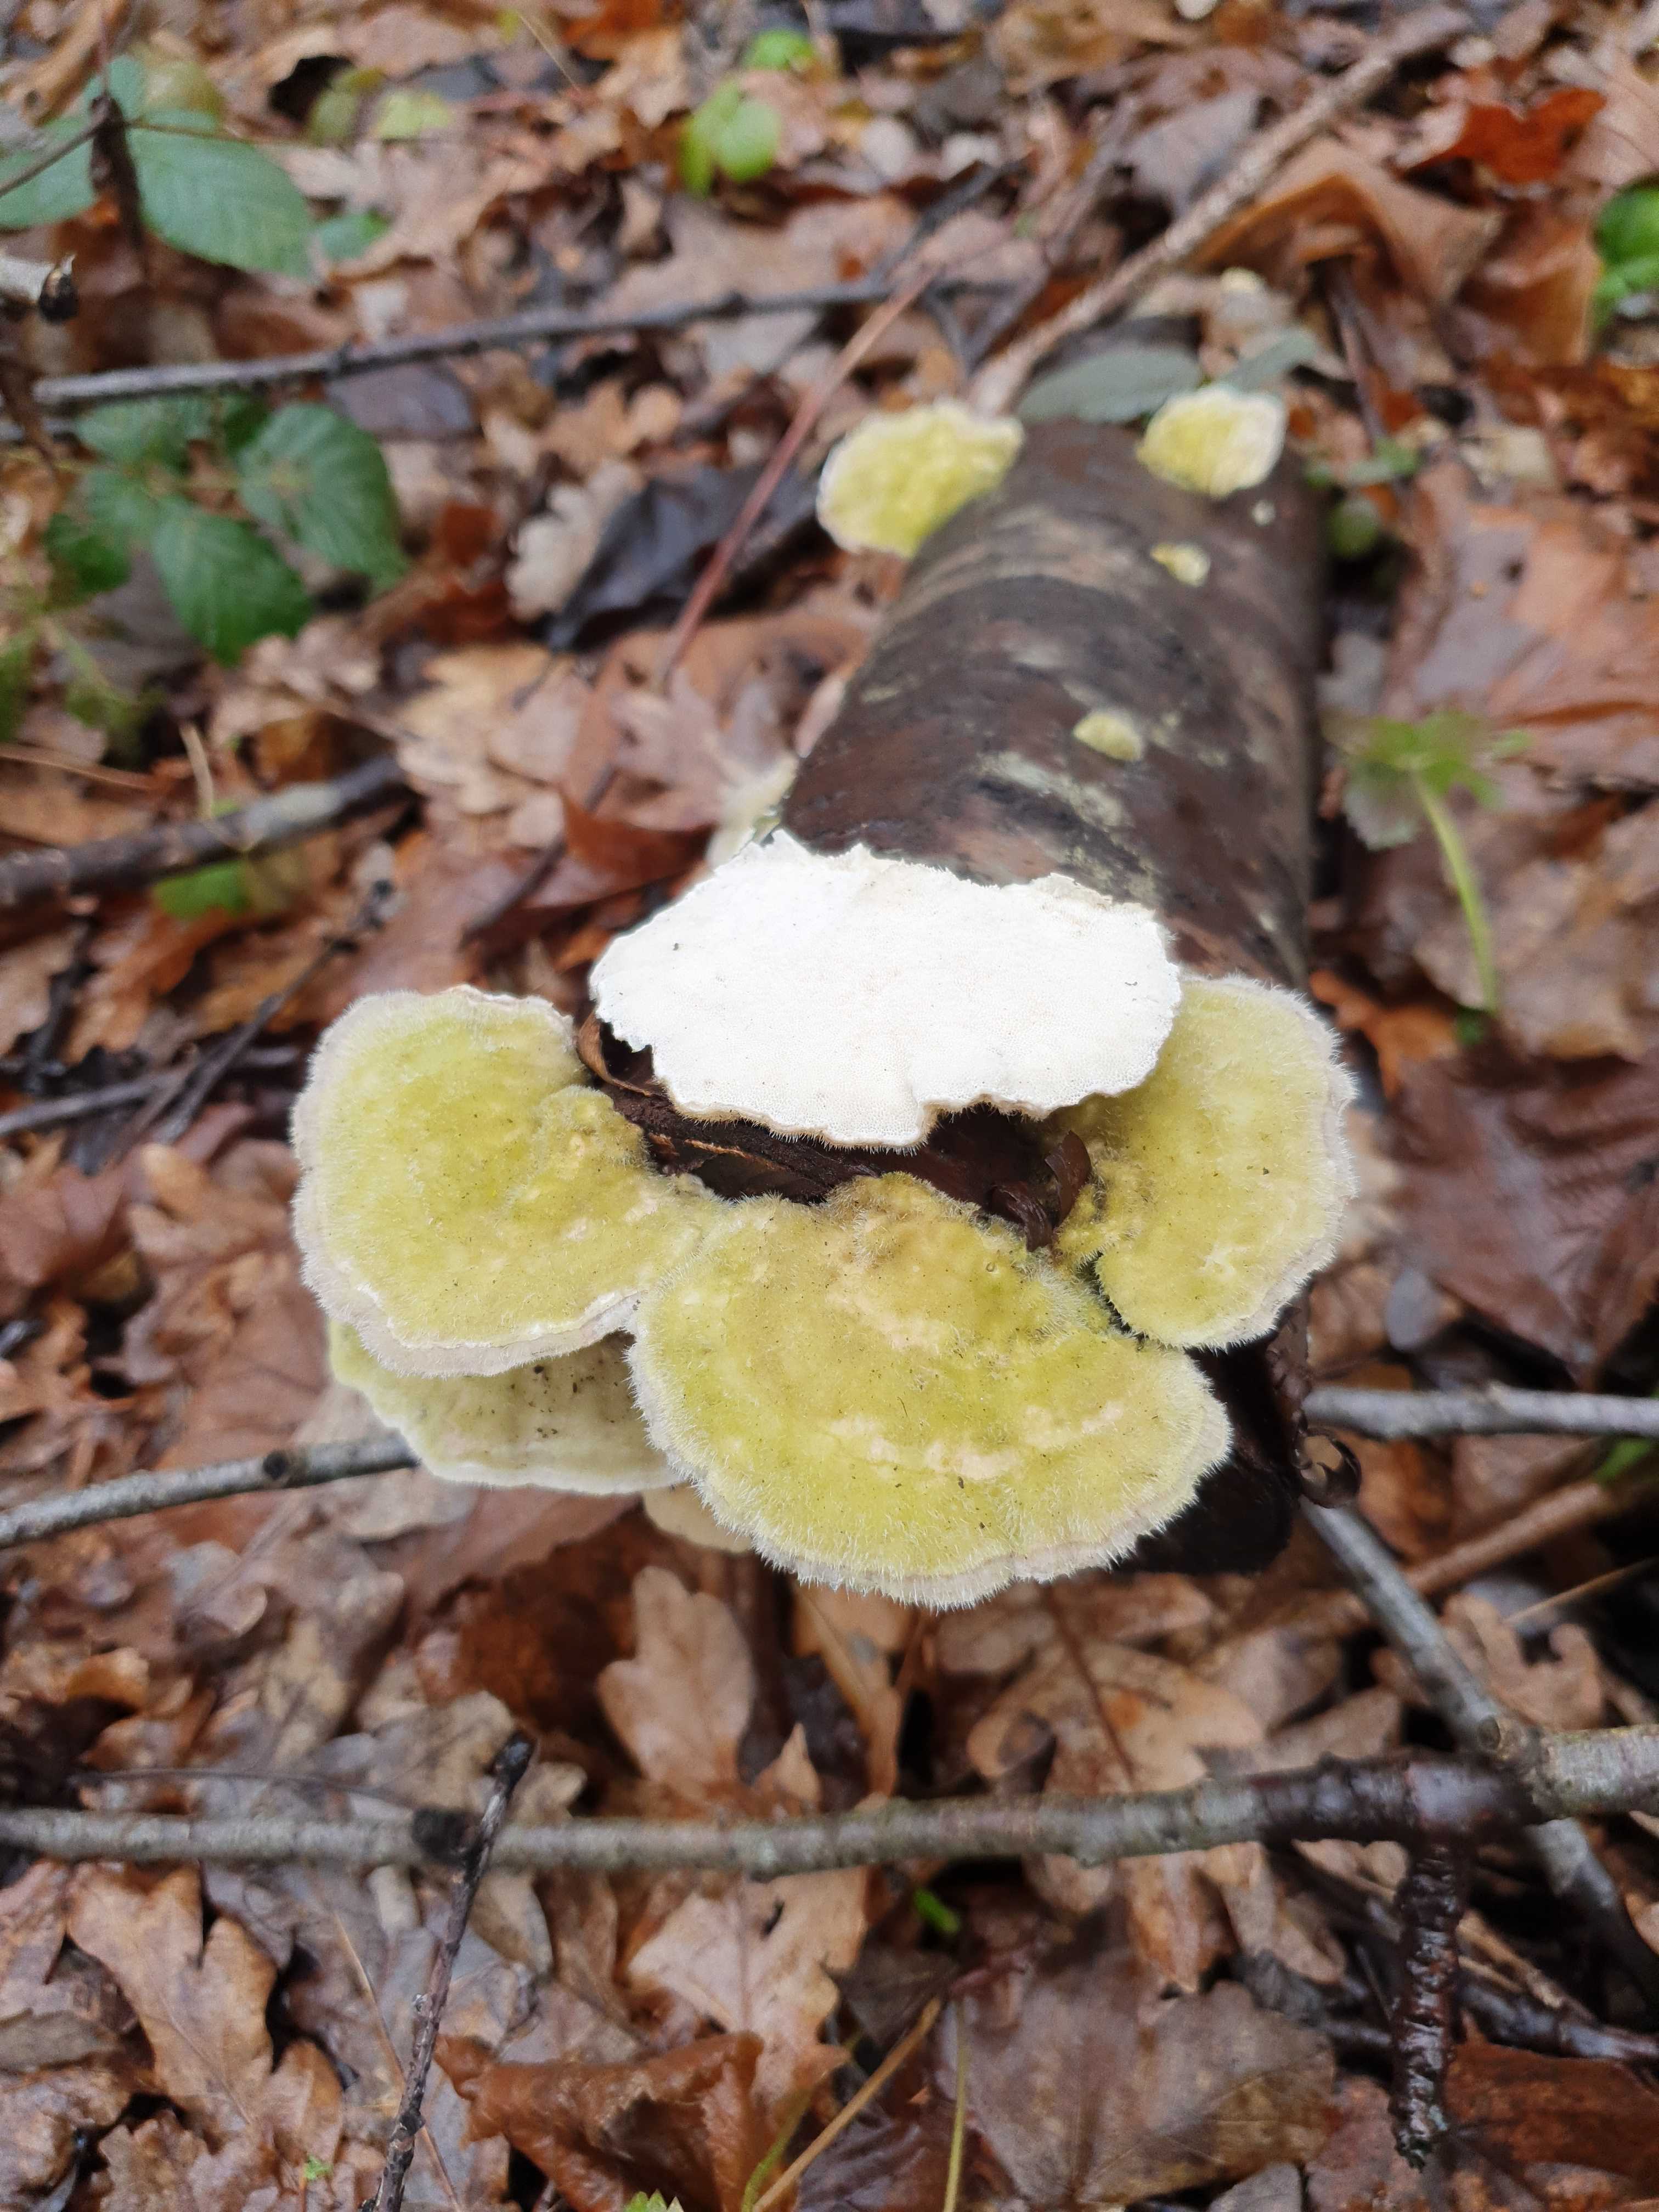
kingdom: Fungi
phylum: Basidiomycota
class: Agaricomycetes
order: Polyporales
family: Polyporaceae
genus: Trametes
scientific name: Trametes hirsuta
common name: håret læderporesvamp
